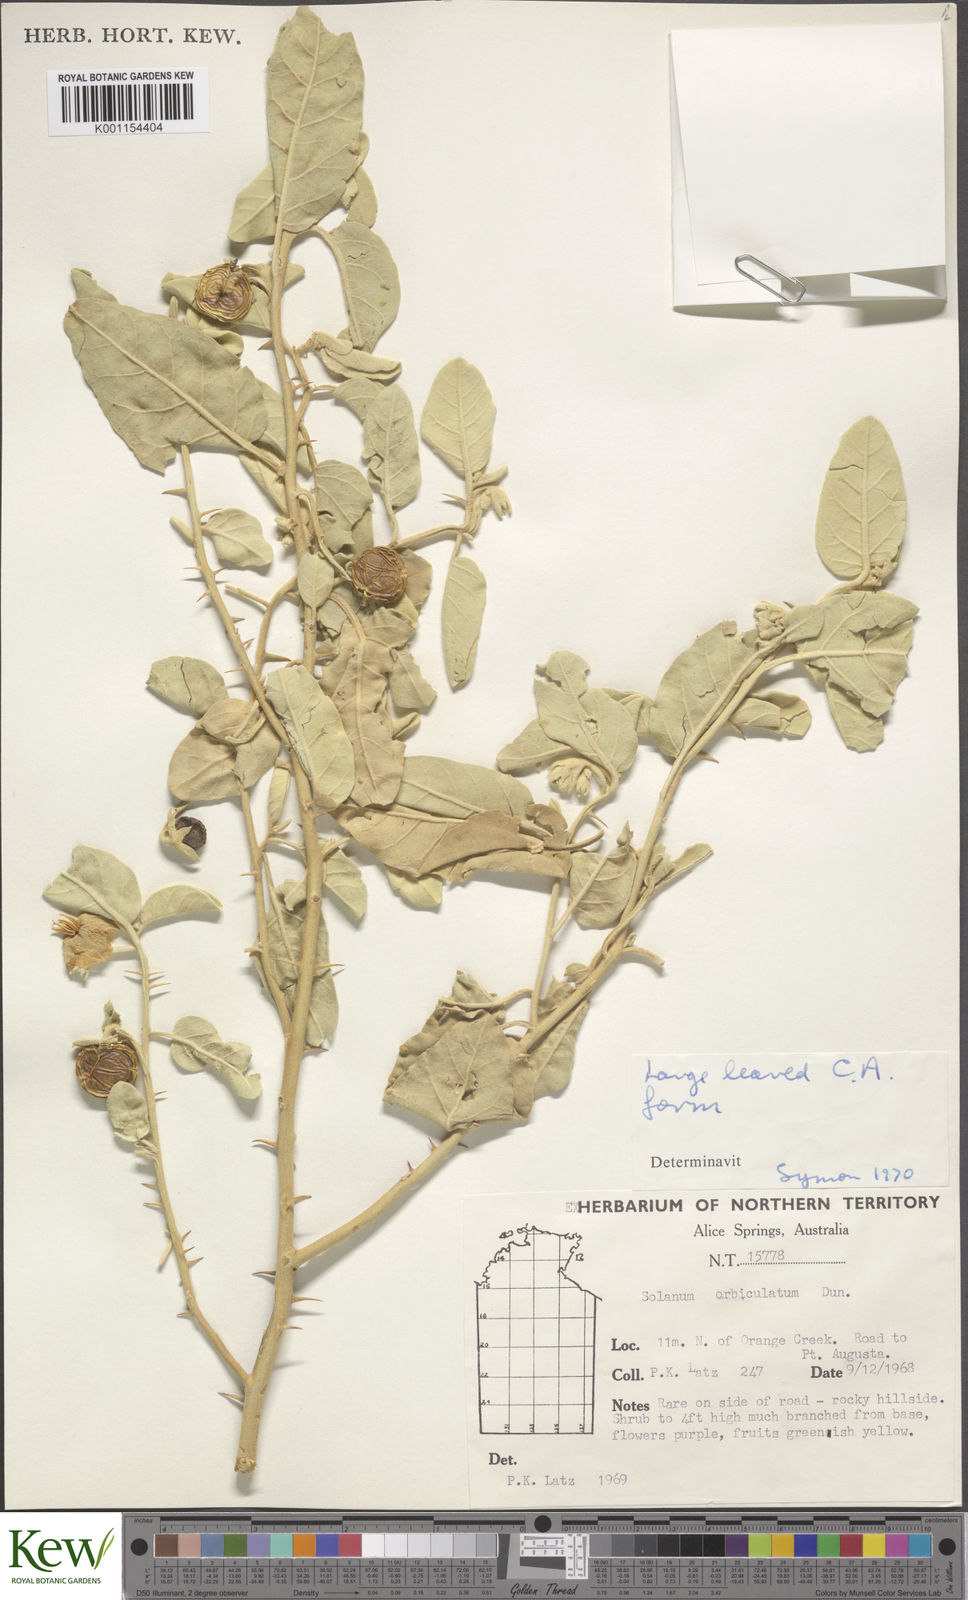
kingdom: Plantae
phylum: Tracheophyta
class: Magnoliopsida
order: Solanales
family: Solanaceae
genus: Solanum
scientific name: Solanum orbiculatum
